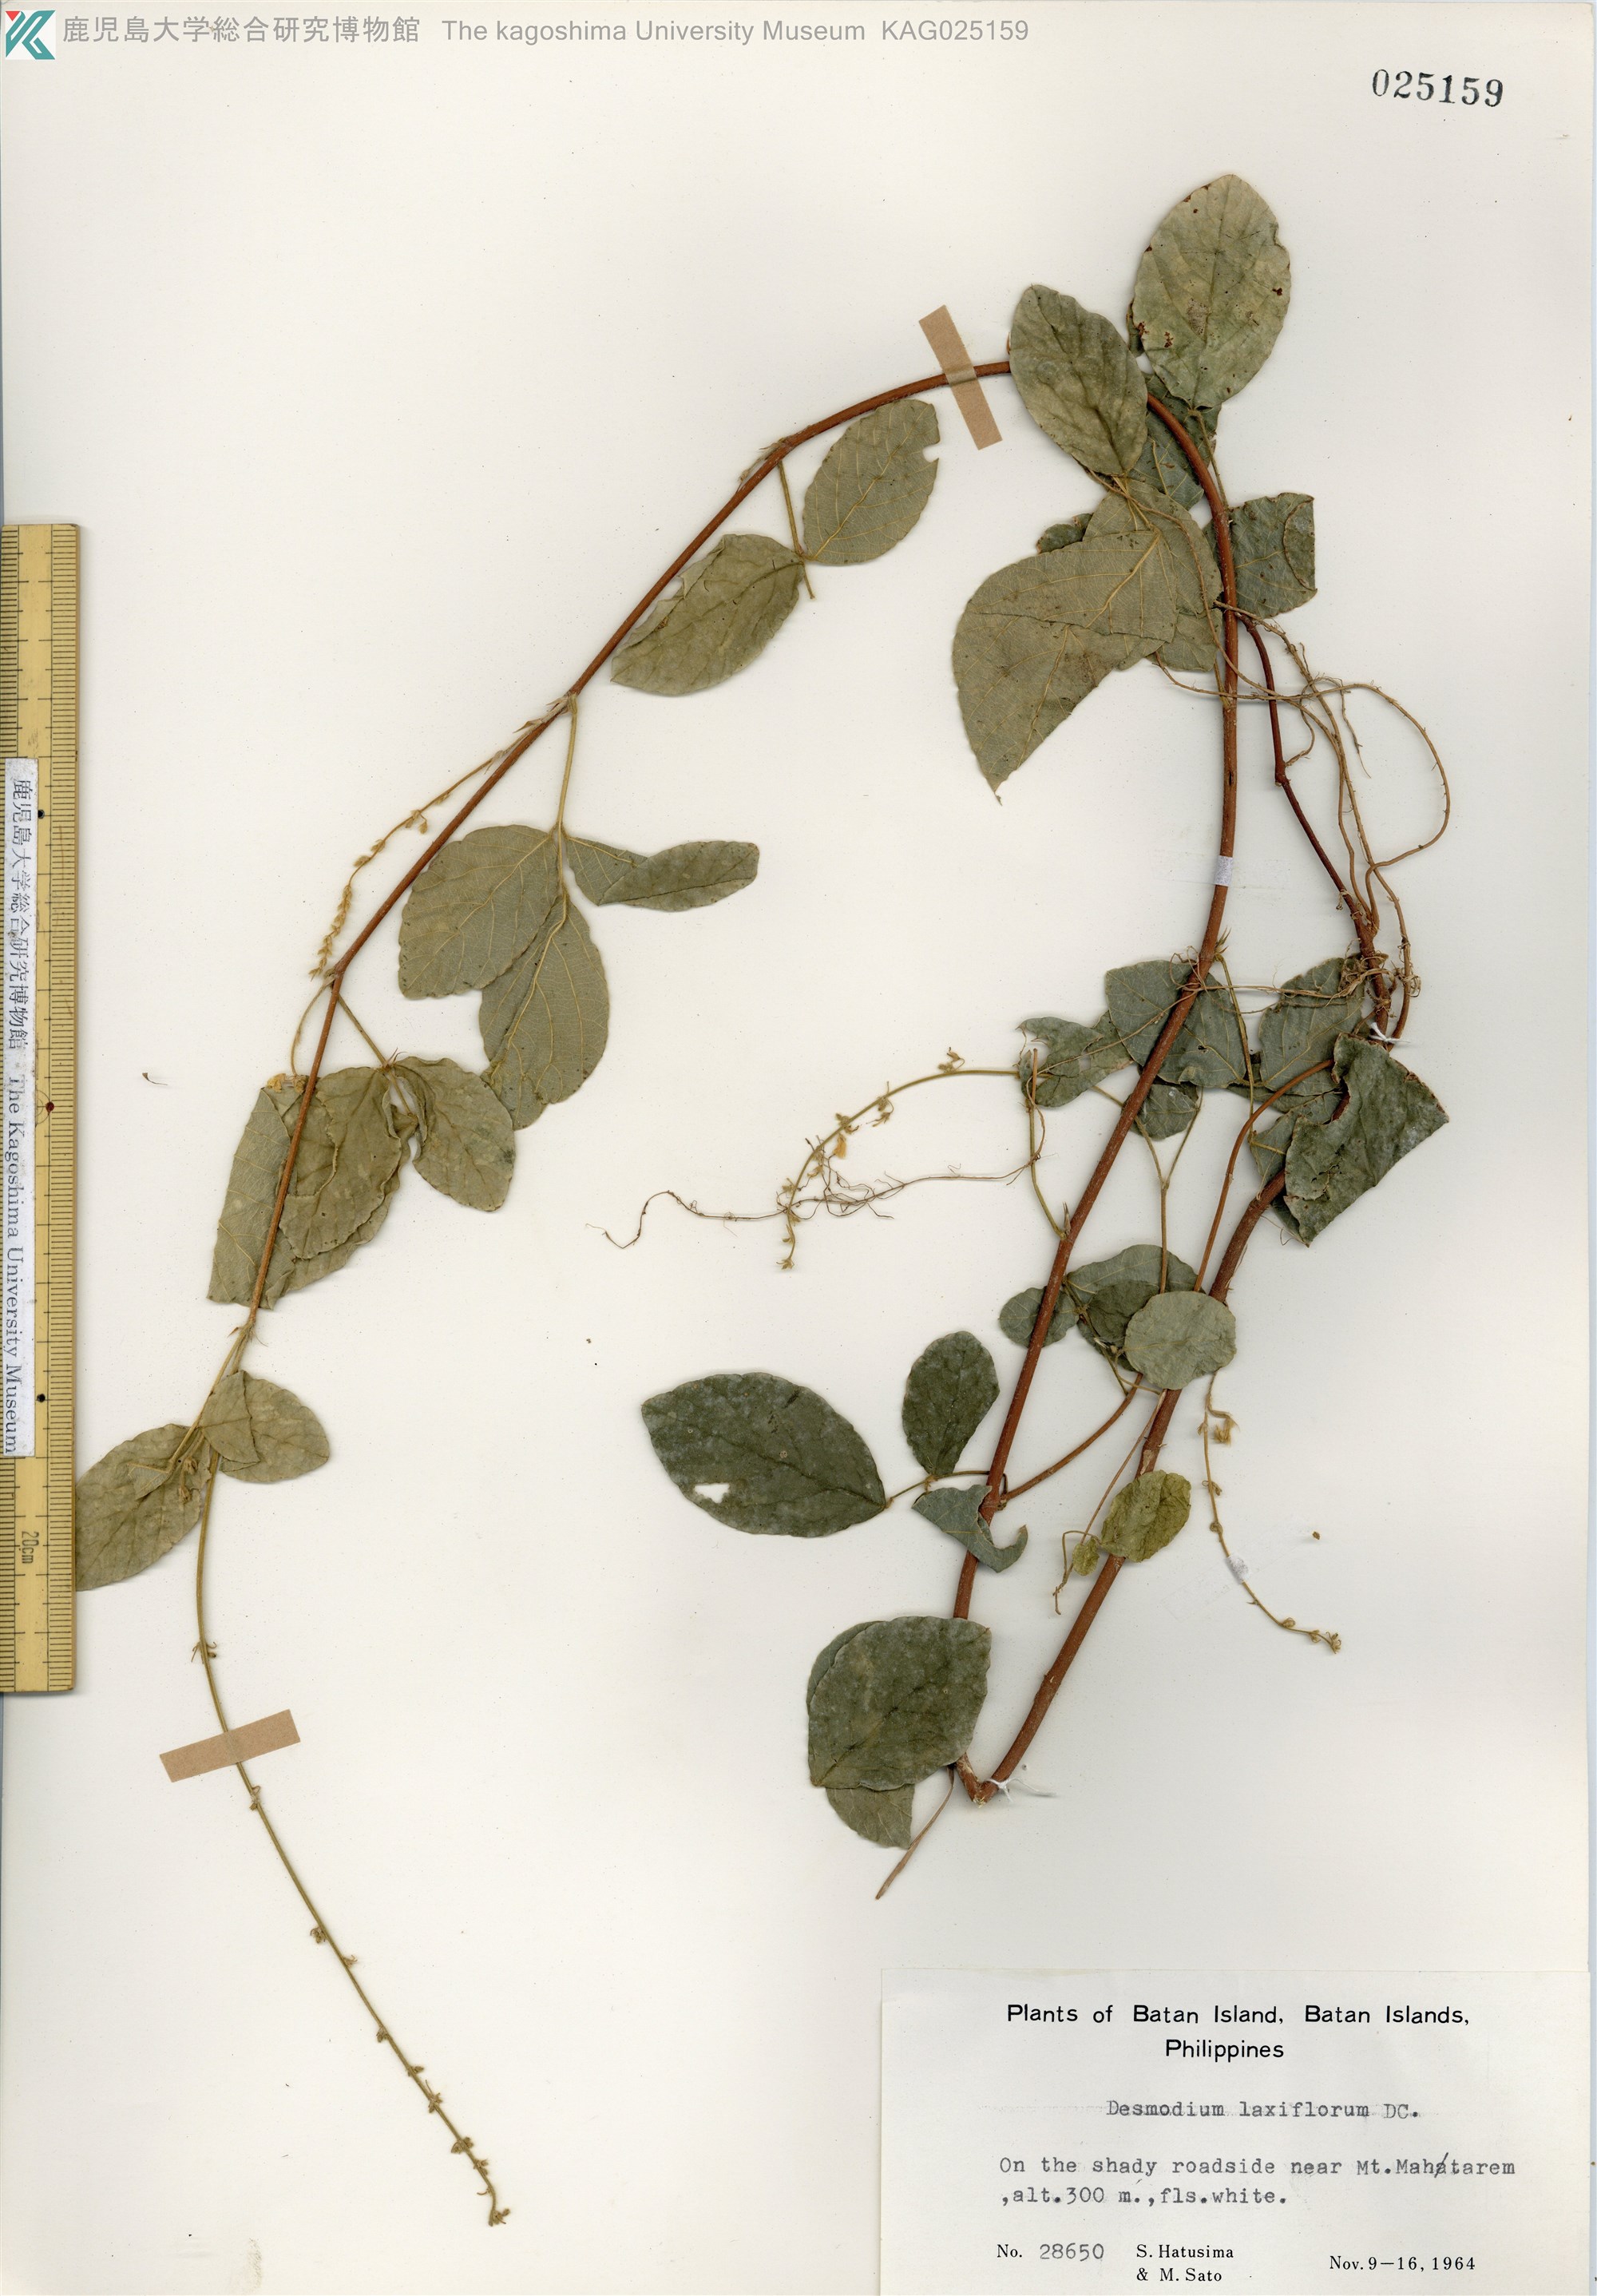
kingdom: Plantae
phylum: Tracheophyta
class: Magnoliopsida
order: Fabales
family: Fabaceae
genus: Sohmaea
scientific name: Sohmaea laxiflora
